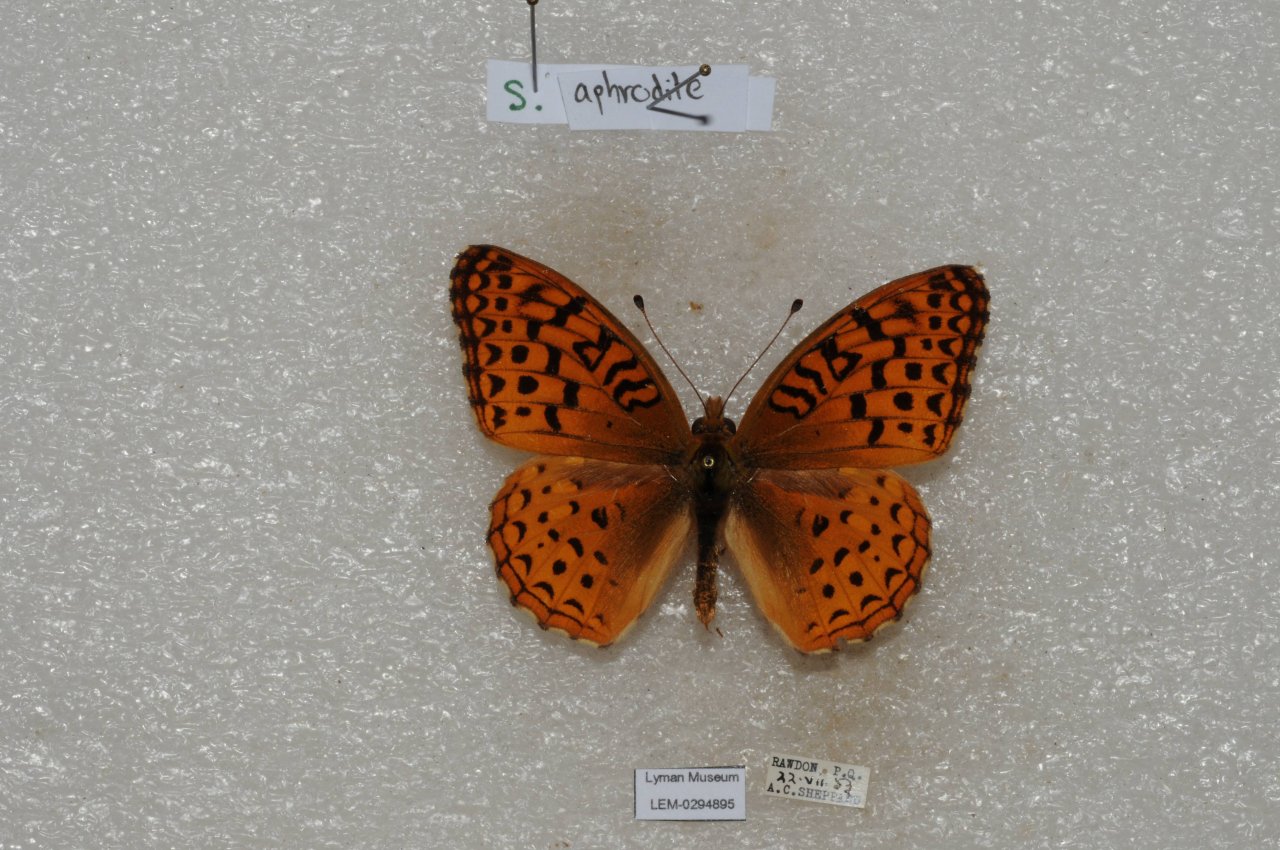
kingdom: Animalia
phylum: Arthropoda
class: Insecta
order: Lepidoptera
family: Nymphalidae
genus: Speyeria
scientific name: Speyeria aphrodite
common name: Aphrodite Fritillary
